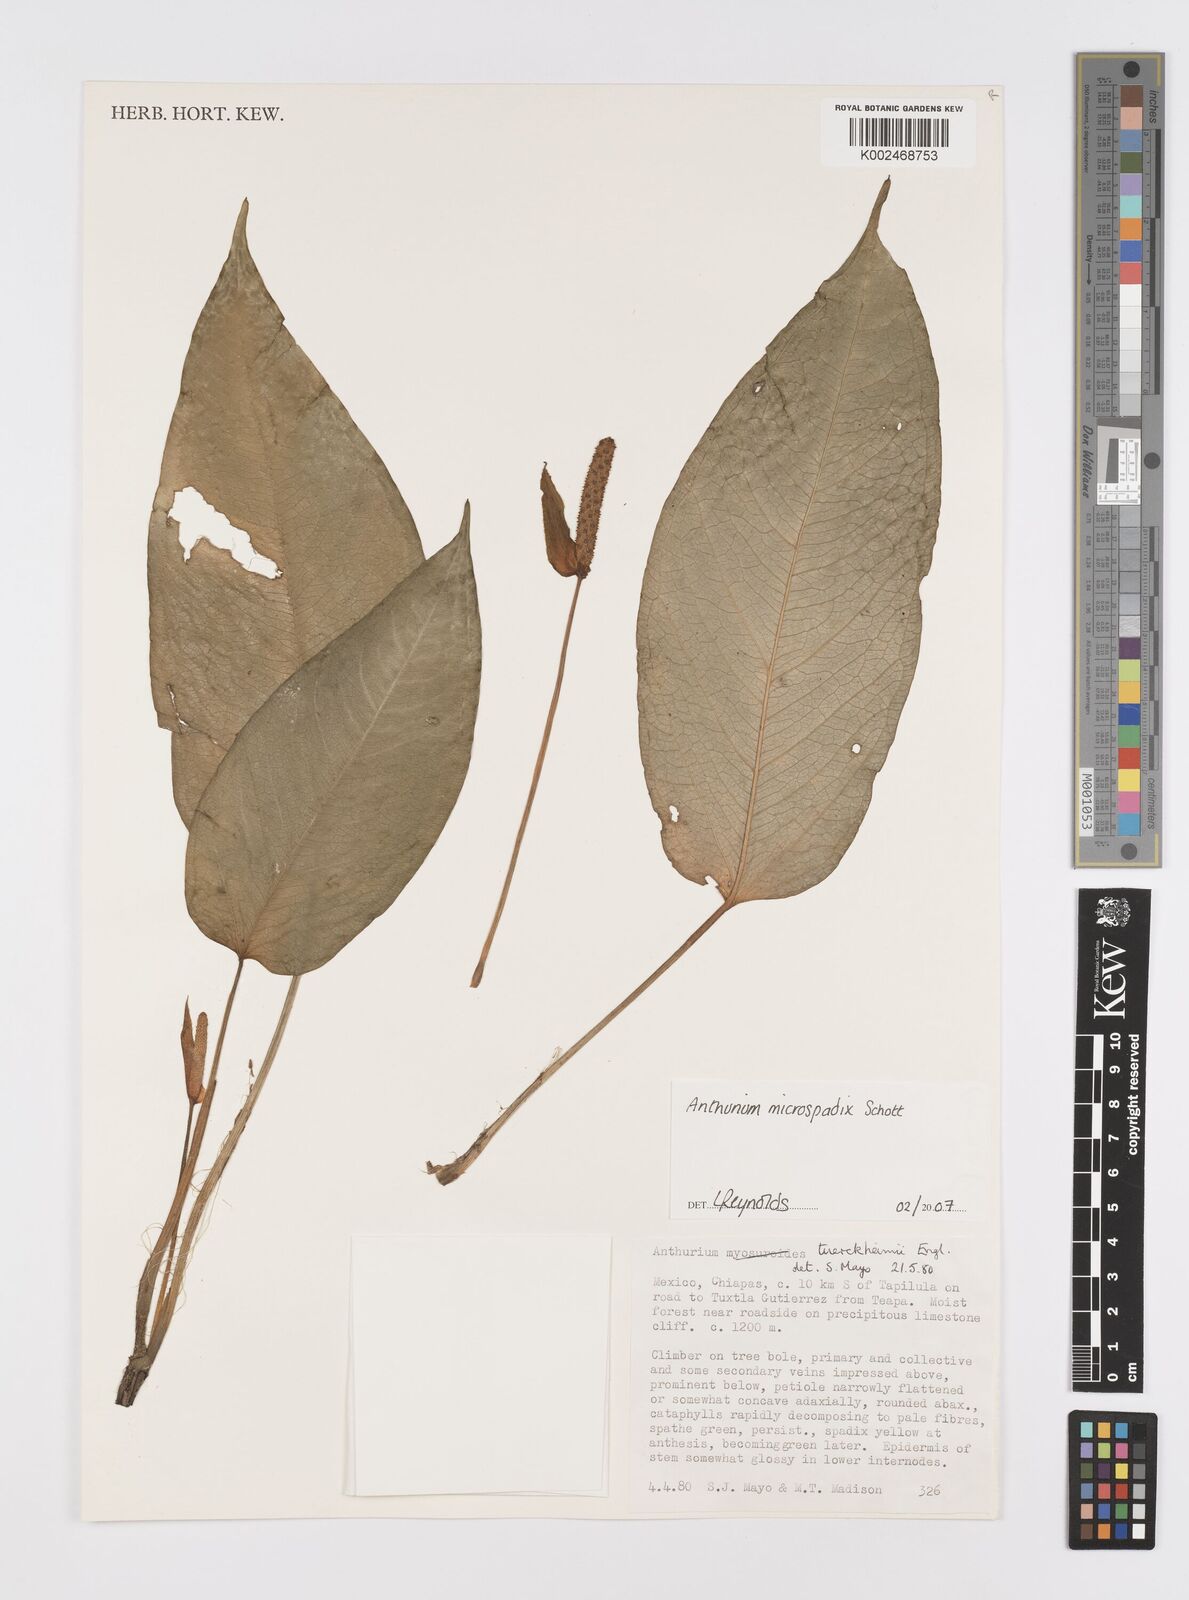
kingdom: Plantae
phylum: Tracheophyta
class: Liliopsida
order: Alismatales
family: Araceae
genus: Anthurium
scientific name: Anthurium microspadix
